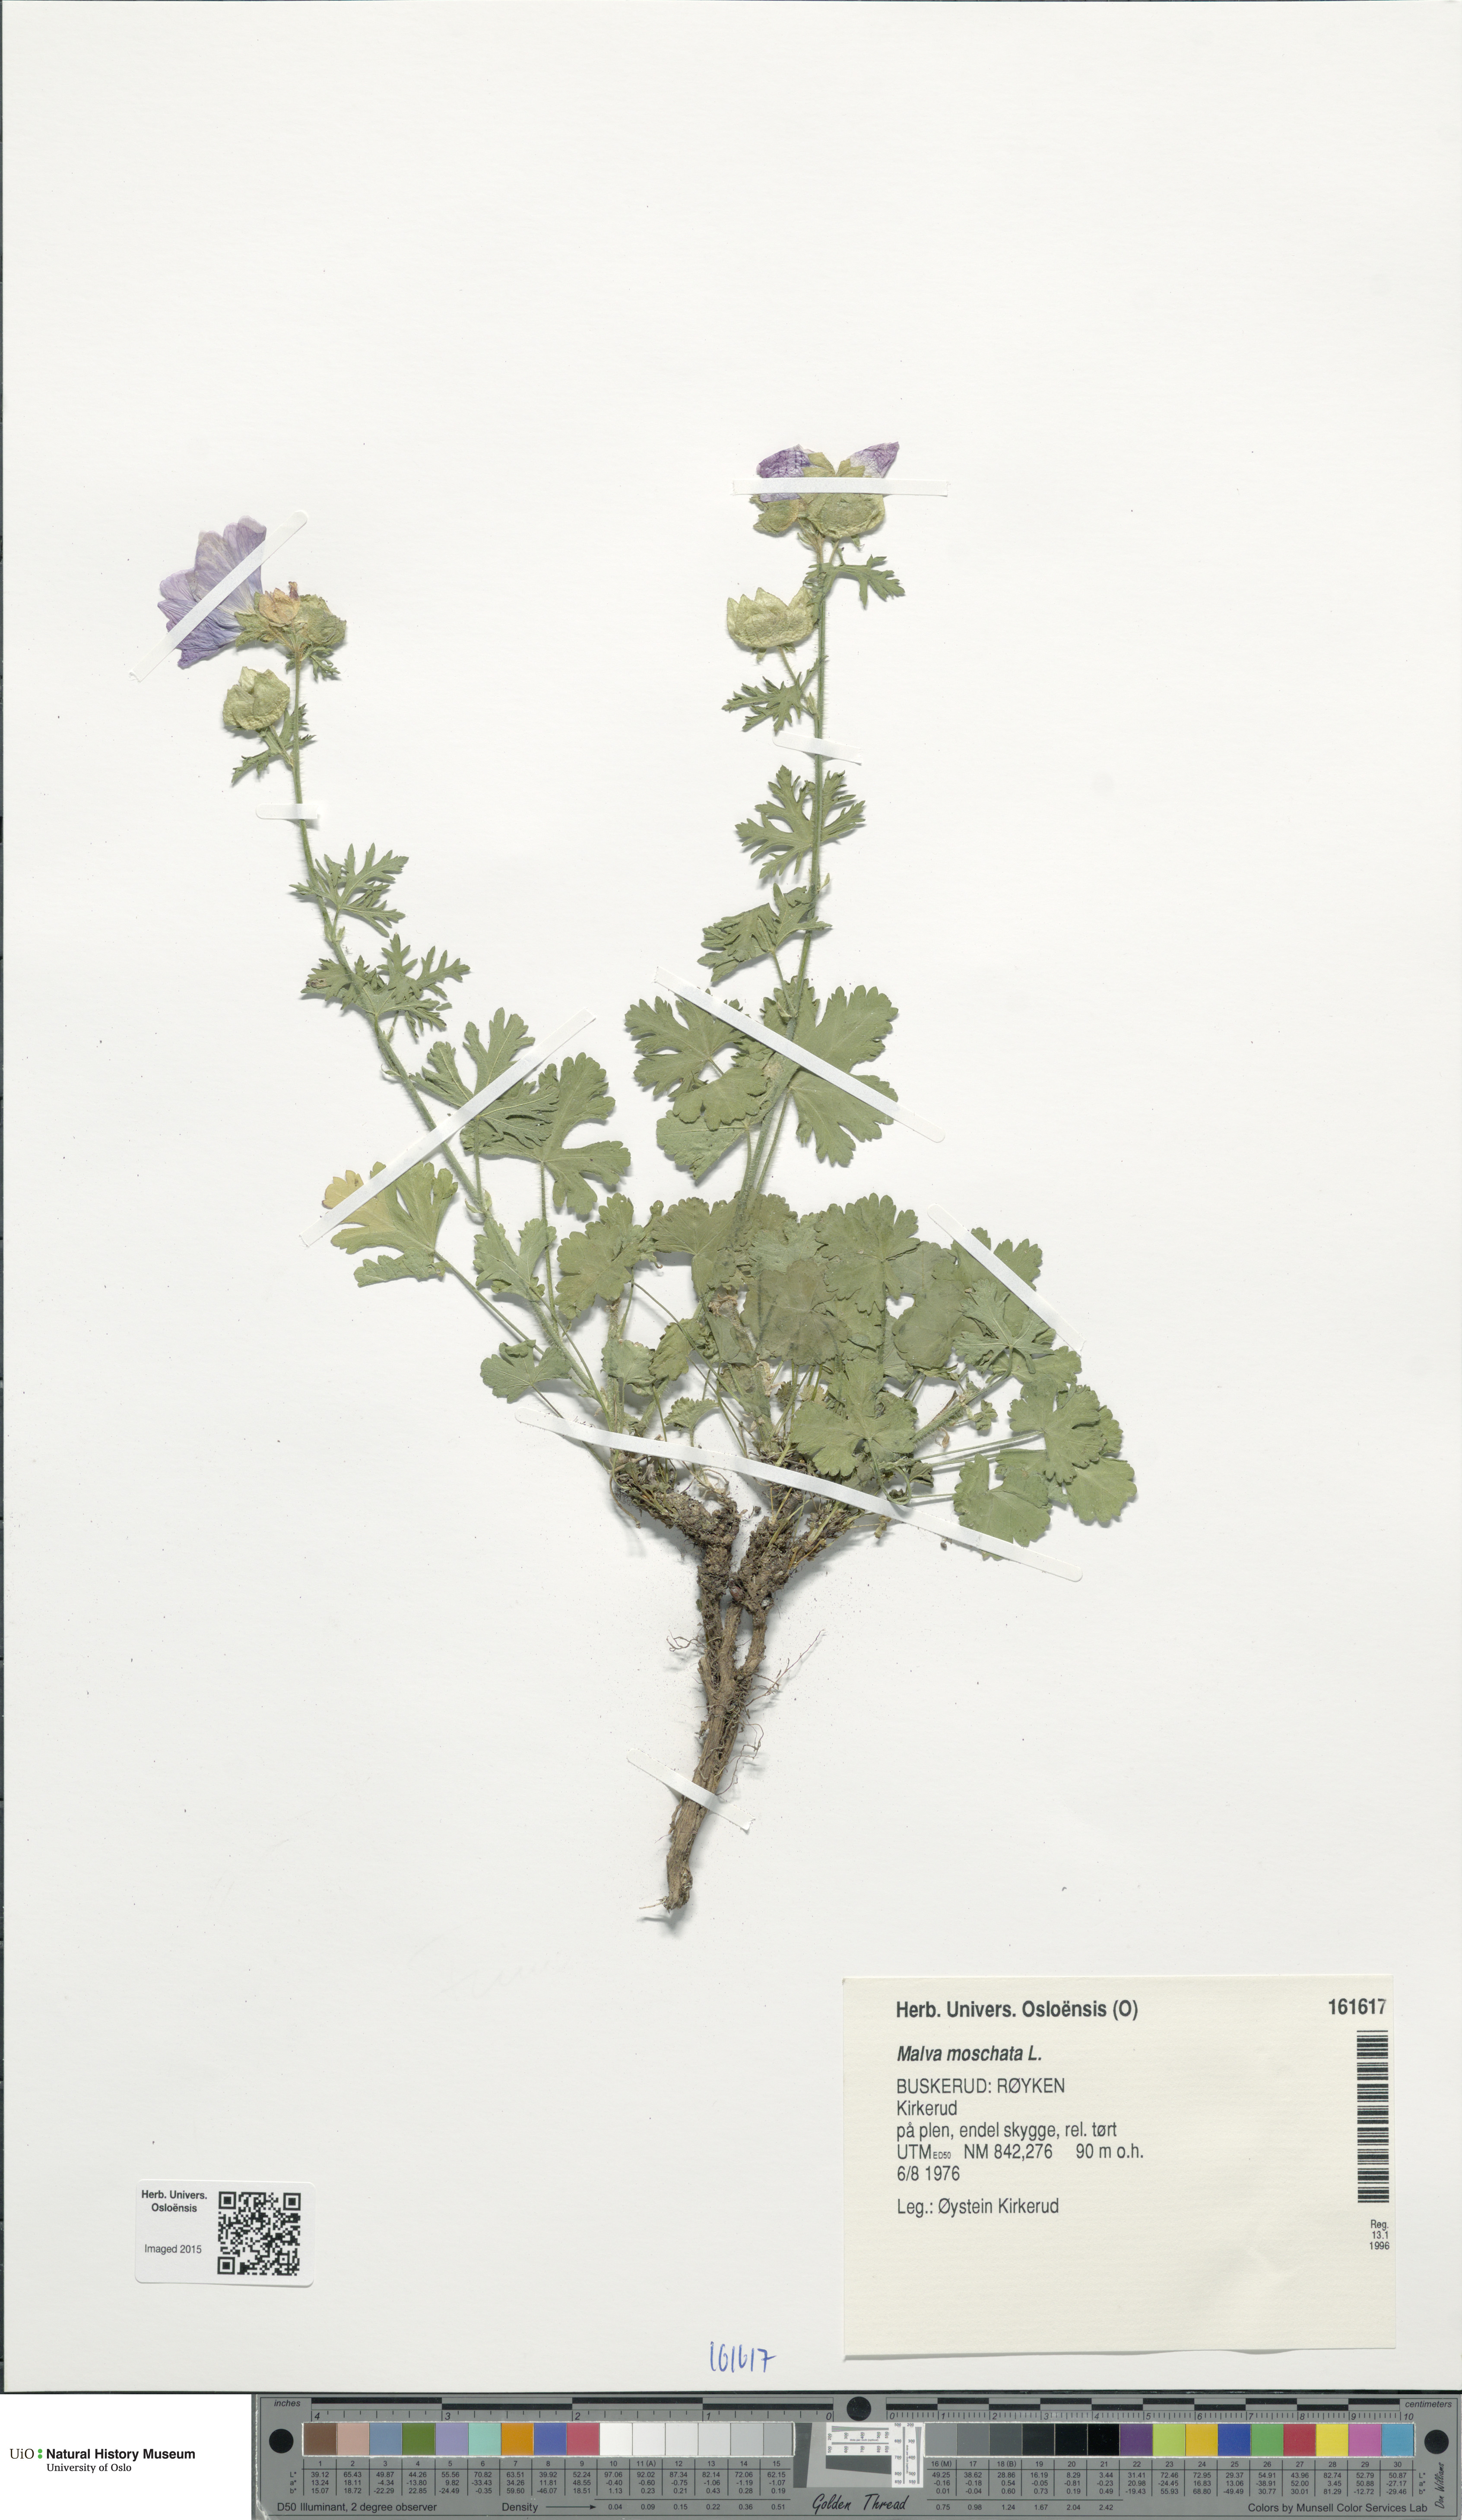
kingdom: Plantae
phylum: Tracheophyta
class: Magnoliopsida
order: Malvales
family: Malvaceae
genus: Malva
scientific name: Malva moschata
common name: Musk mallow
